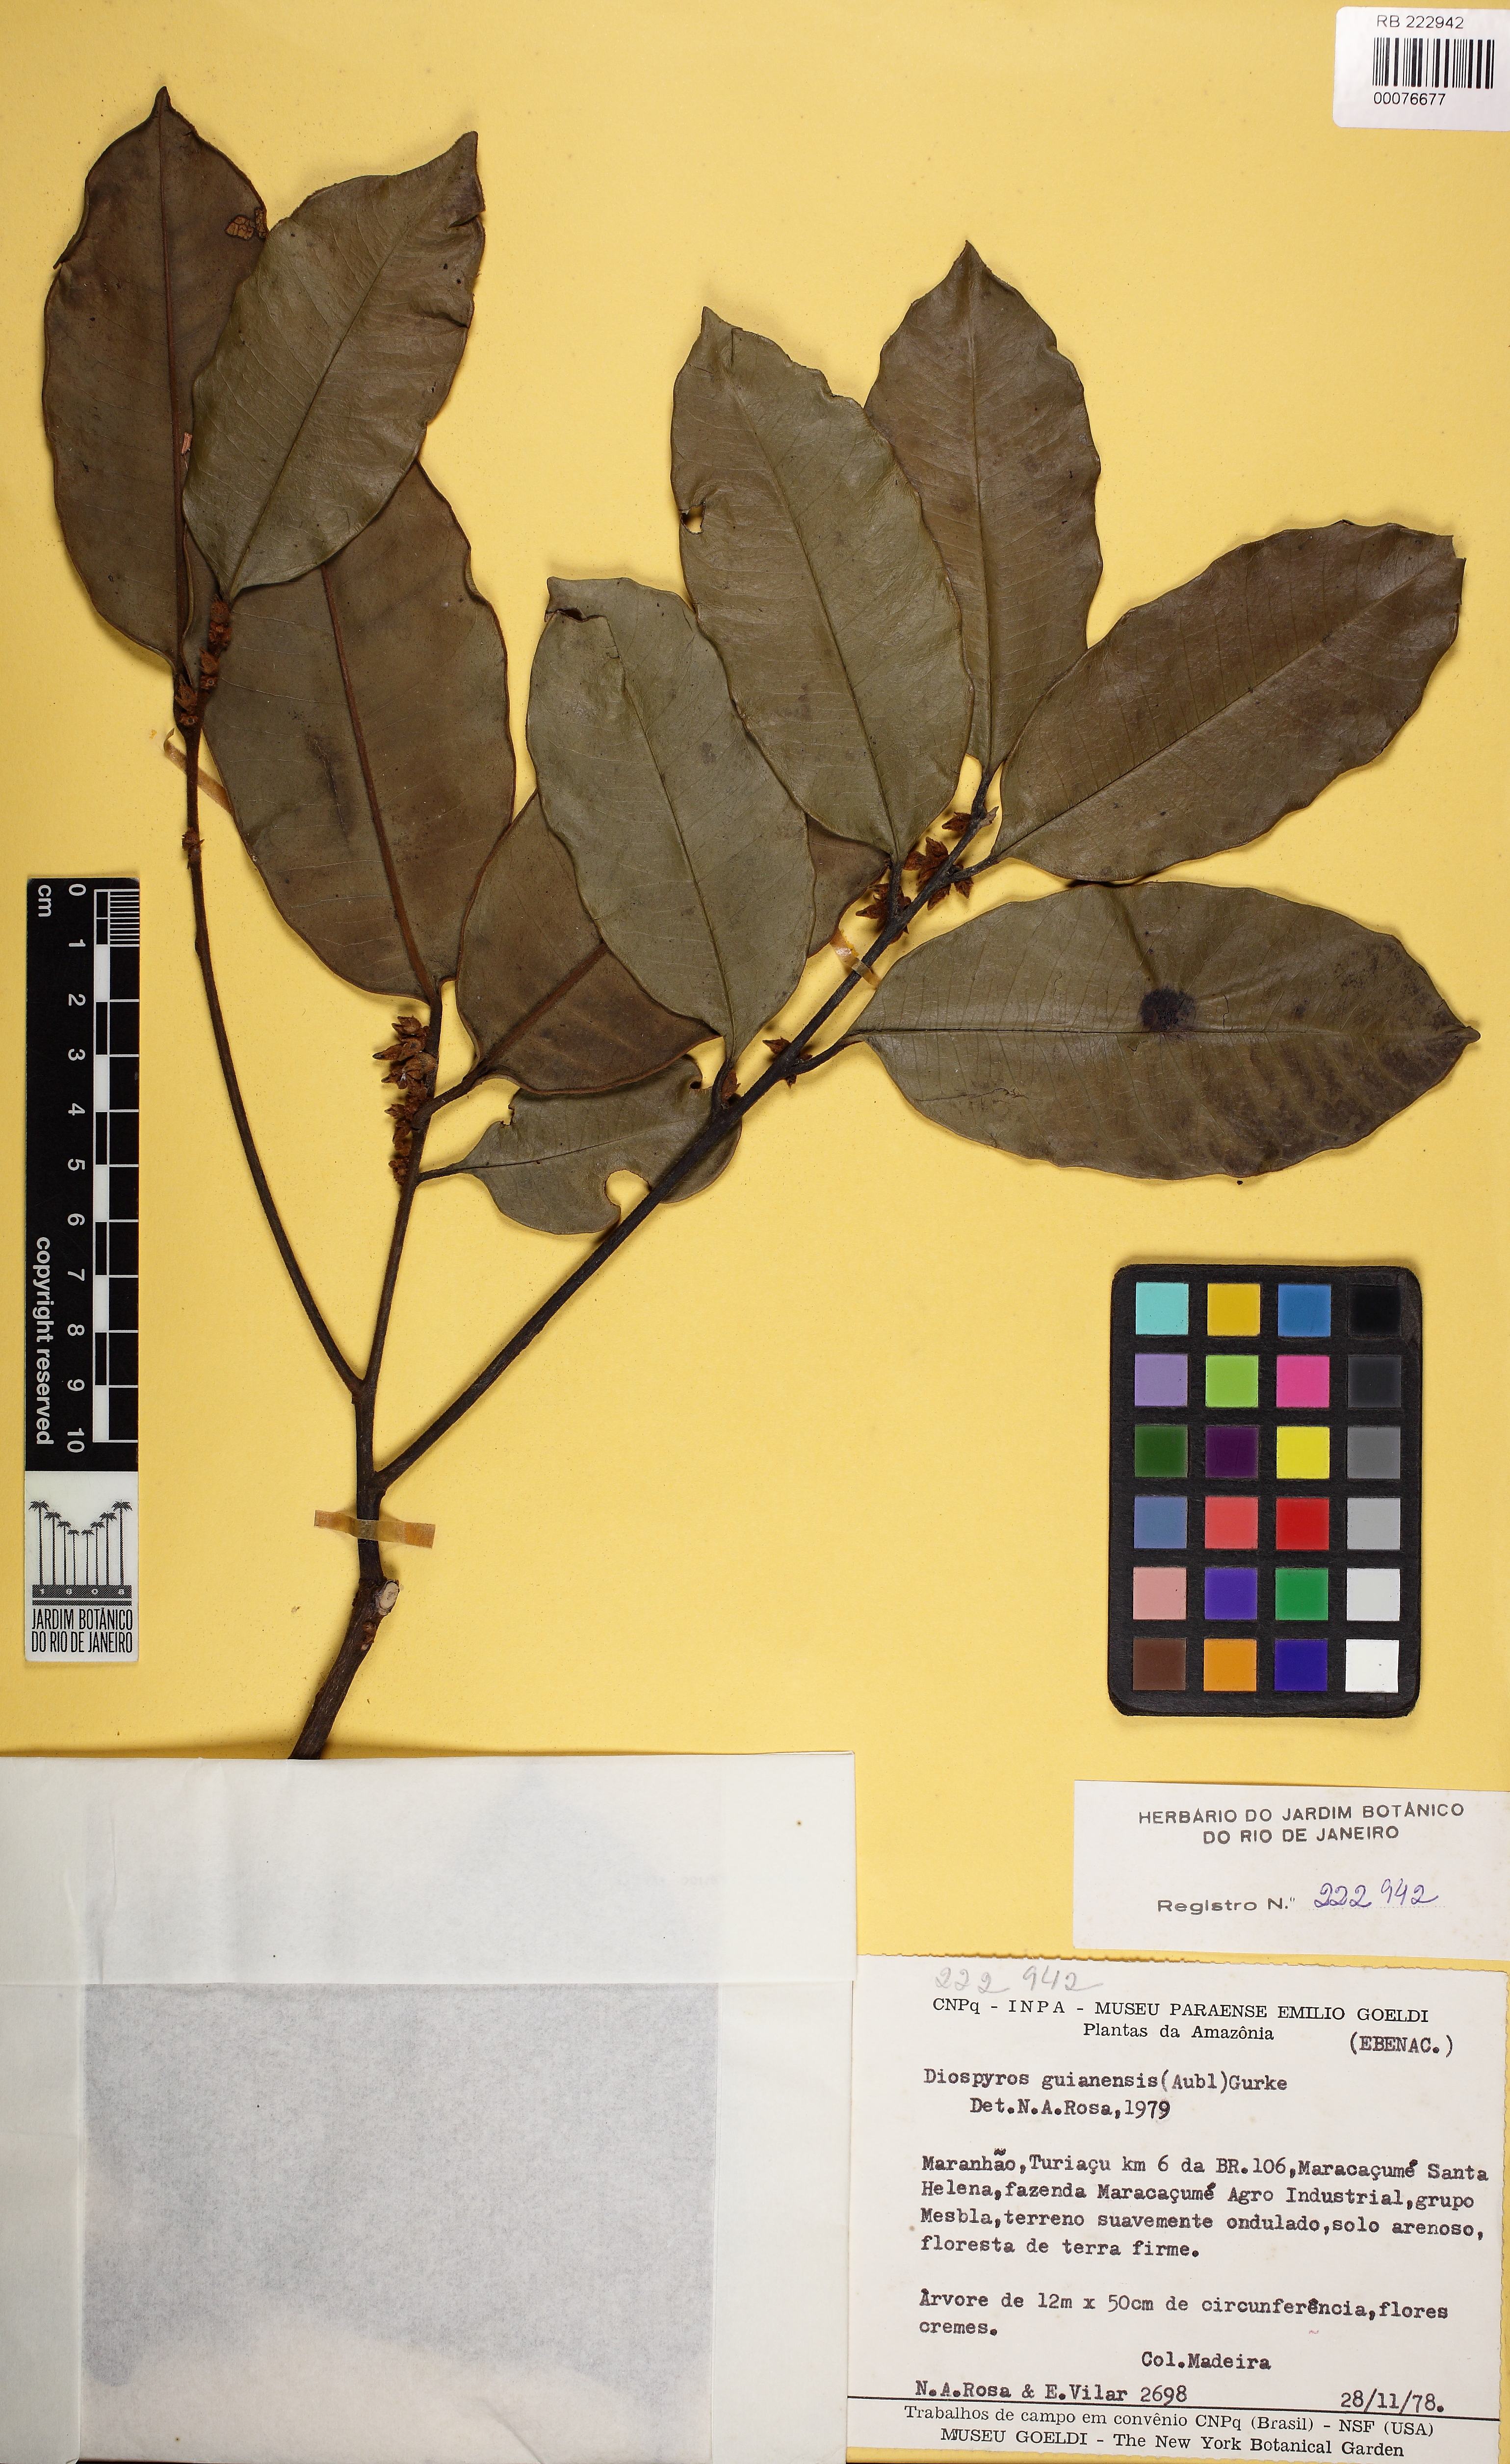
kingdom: Plantae
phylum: Tracheophyta
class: Magnoliopsida
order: Ericales
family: Ebenaceae
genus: Diospyros
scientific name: Diospyros guianensis
